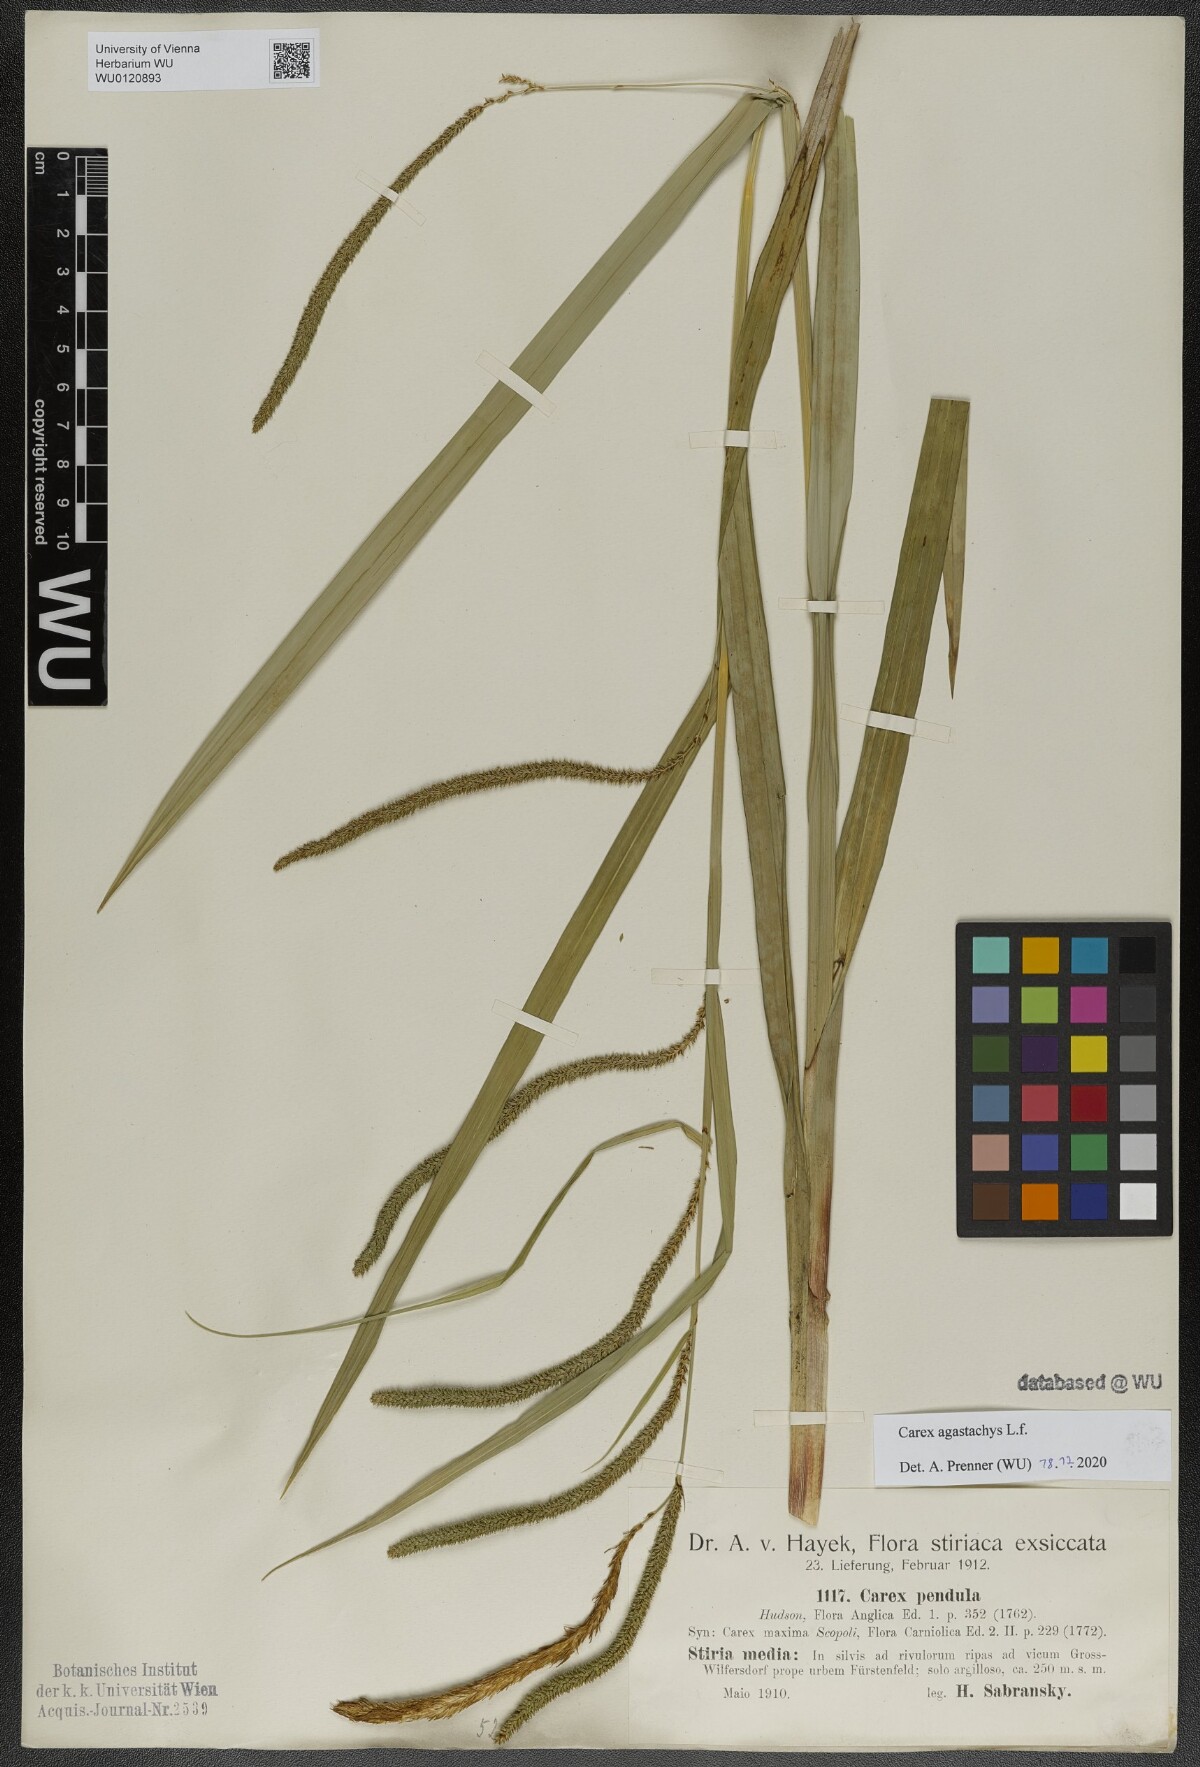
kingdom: Plantae
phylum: Tracheophyta
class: Liliopsida
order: Poales
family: Cyperaceae
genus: Carex
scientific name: Carex agastachys
